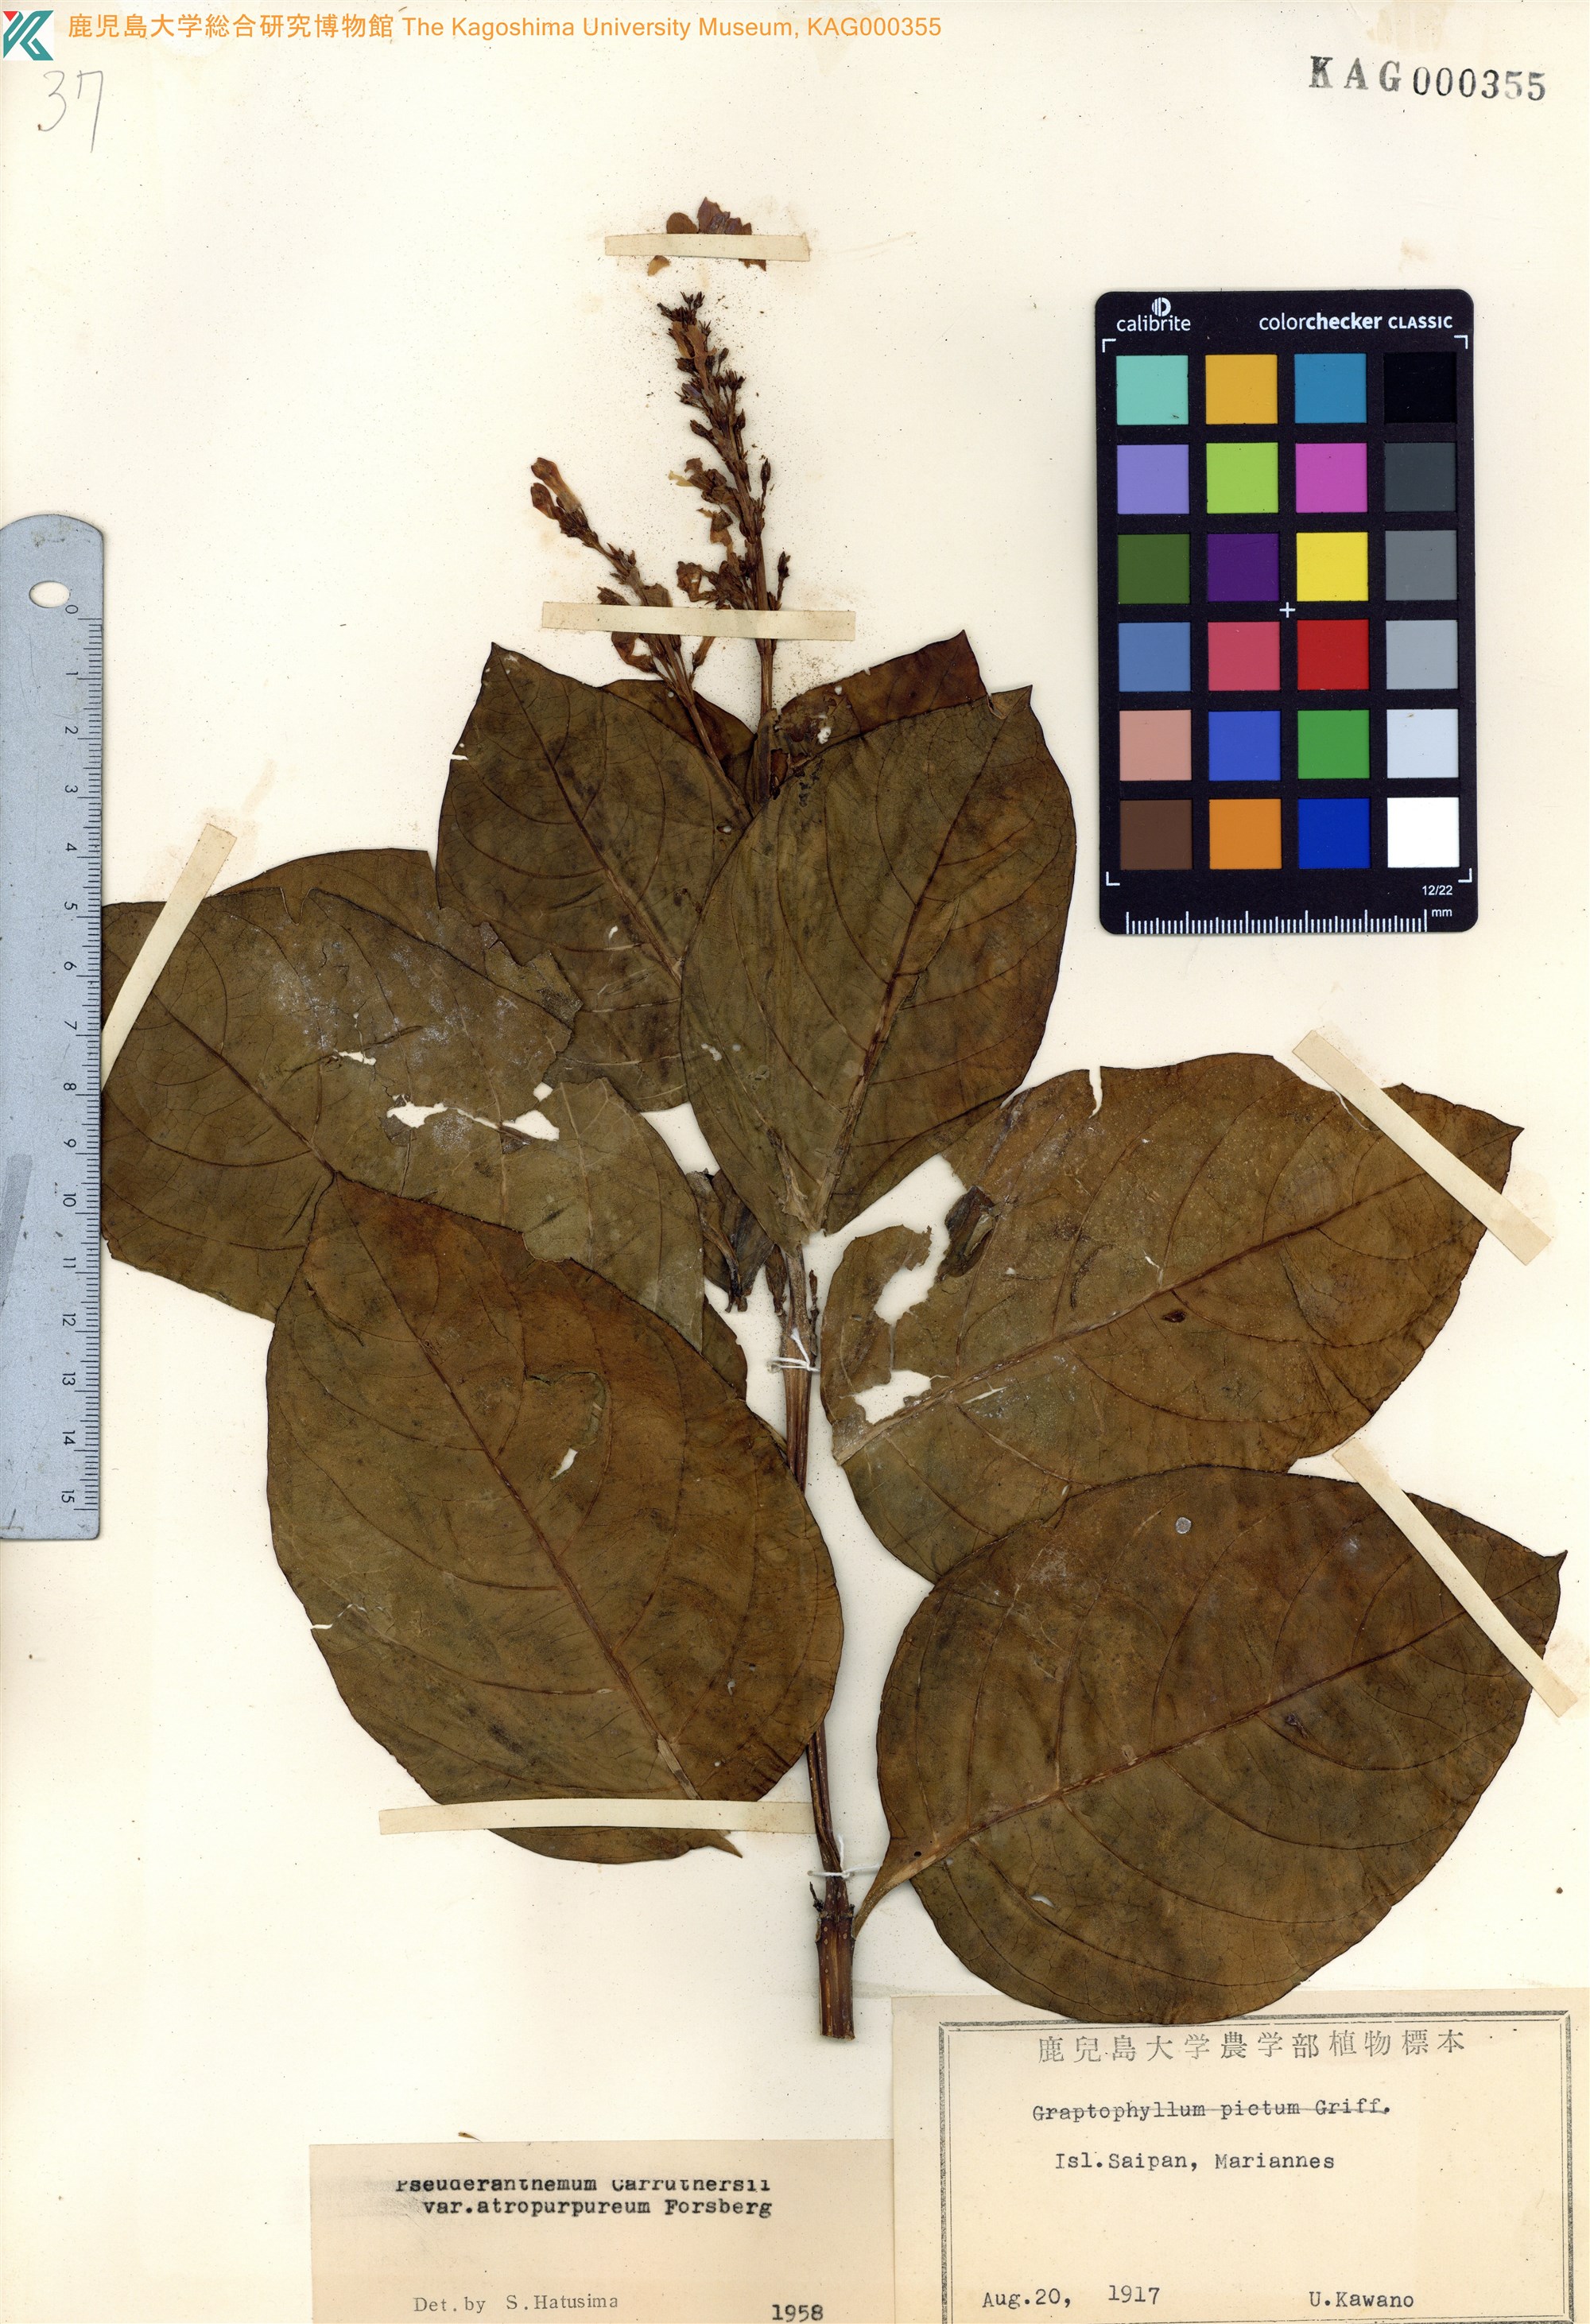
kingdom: Plantae
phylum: Tracheophyta
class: Magnoliopsida
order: Lamiales
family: Acanthaceae
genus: Pseuderanthemum
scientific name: Pseuderanthemum maculatum
